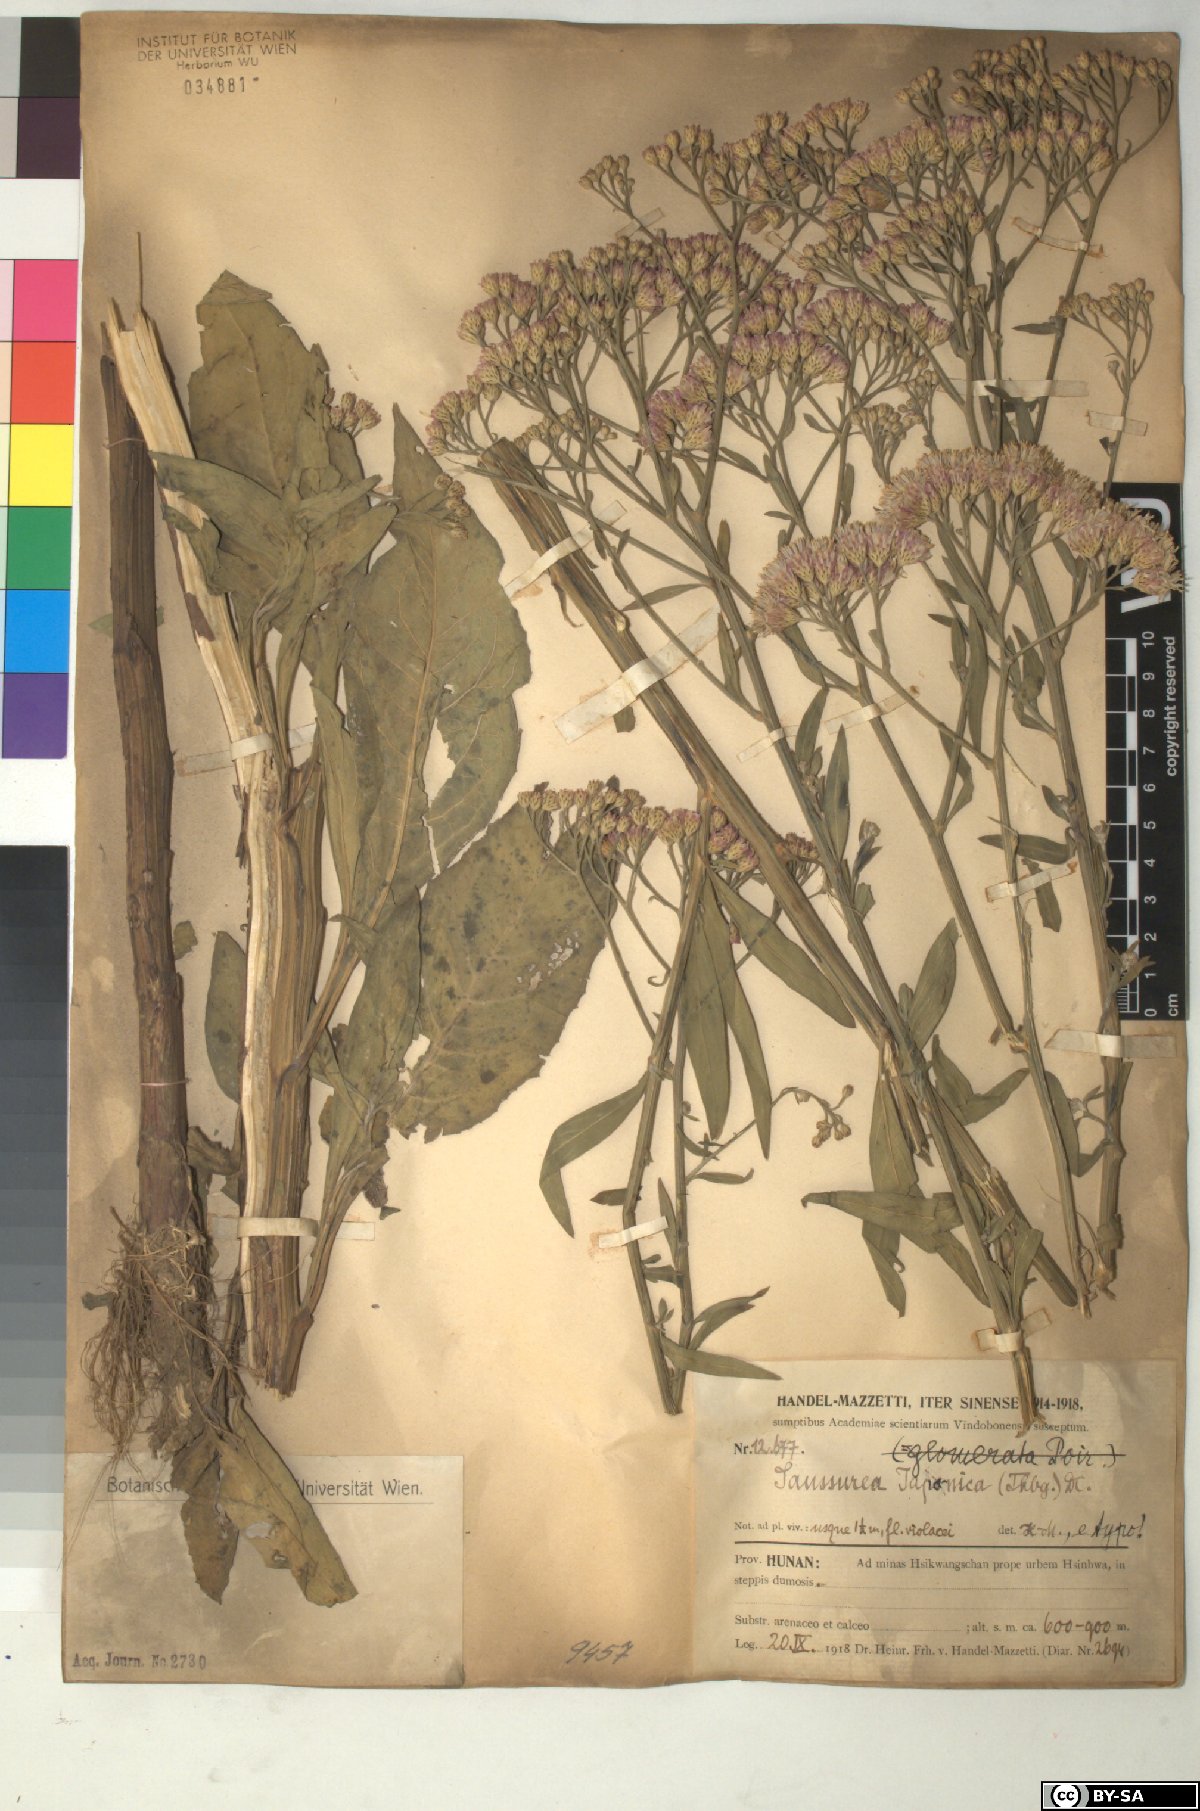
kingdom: Plantae
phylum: Tracheophyta
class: Magnoliopsida
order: Asterales
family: Asteraceae
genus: Saussurea
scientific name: Saussurea japonica
